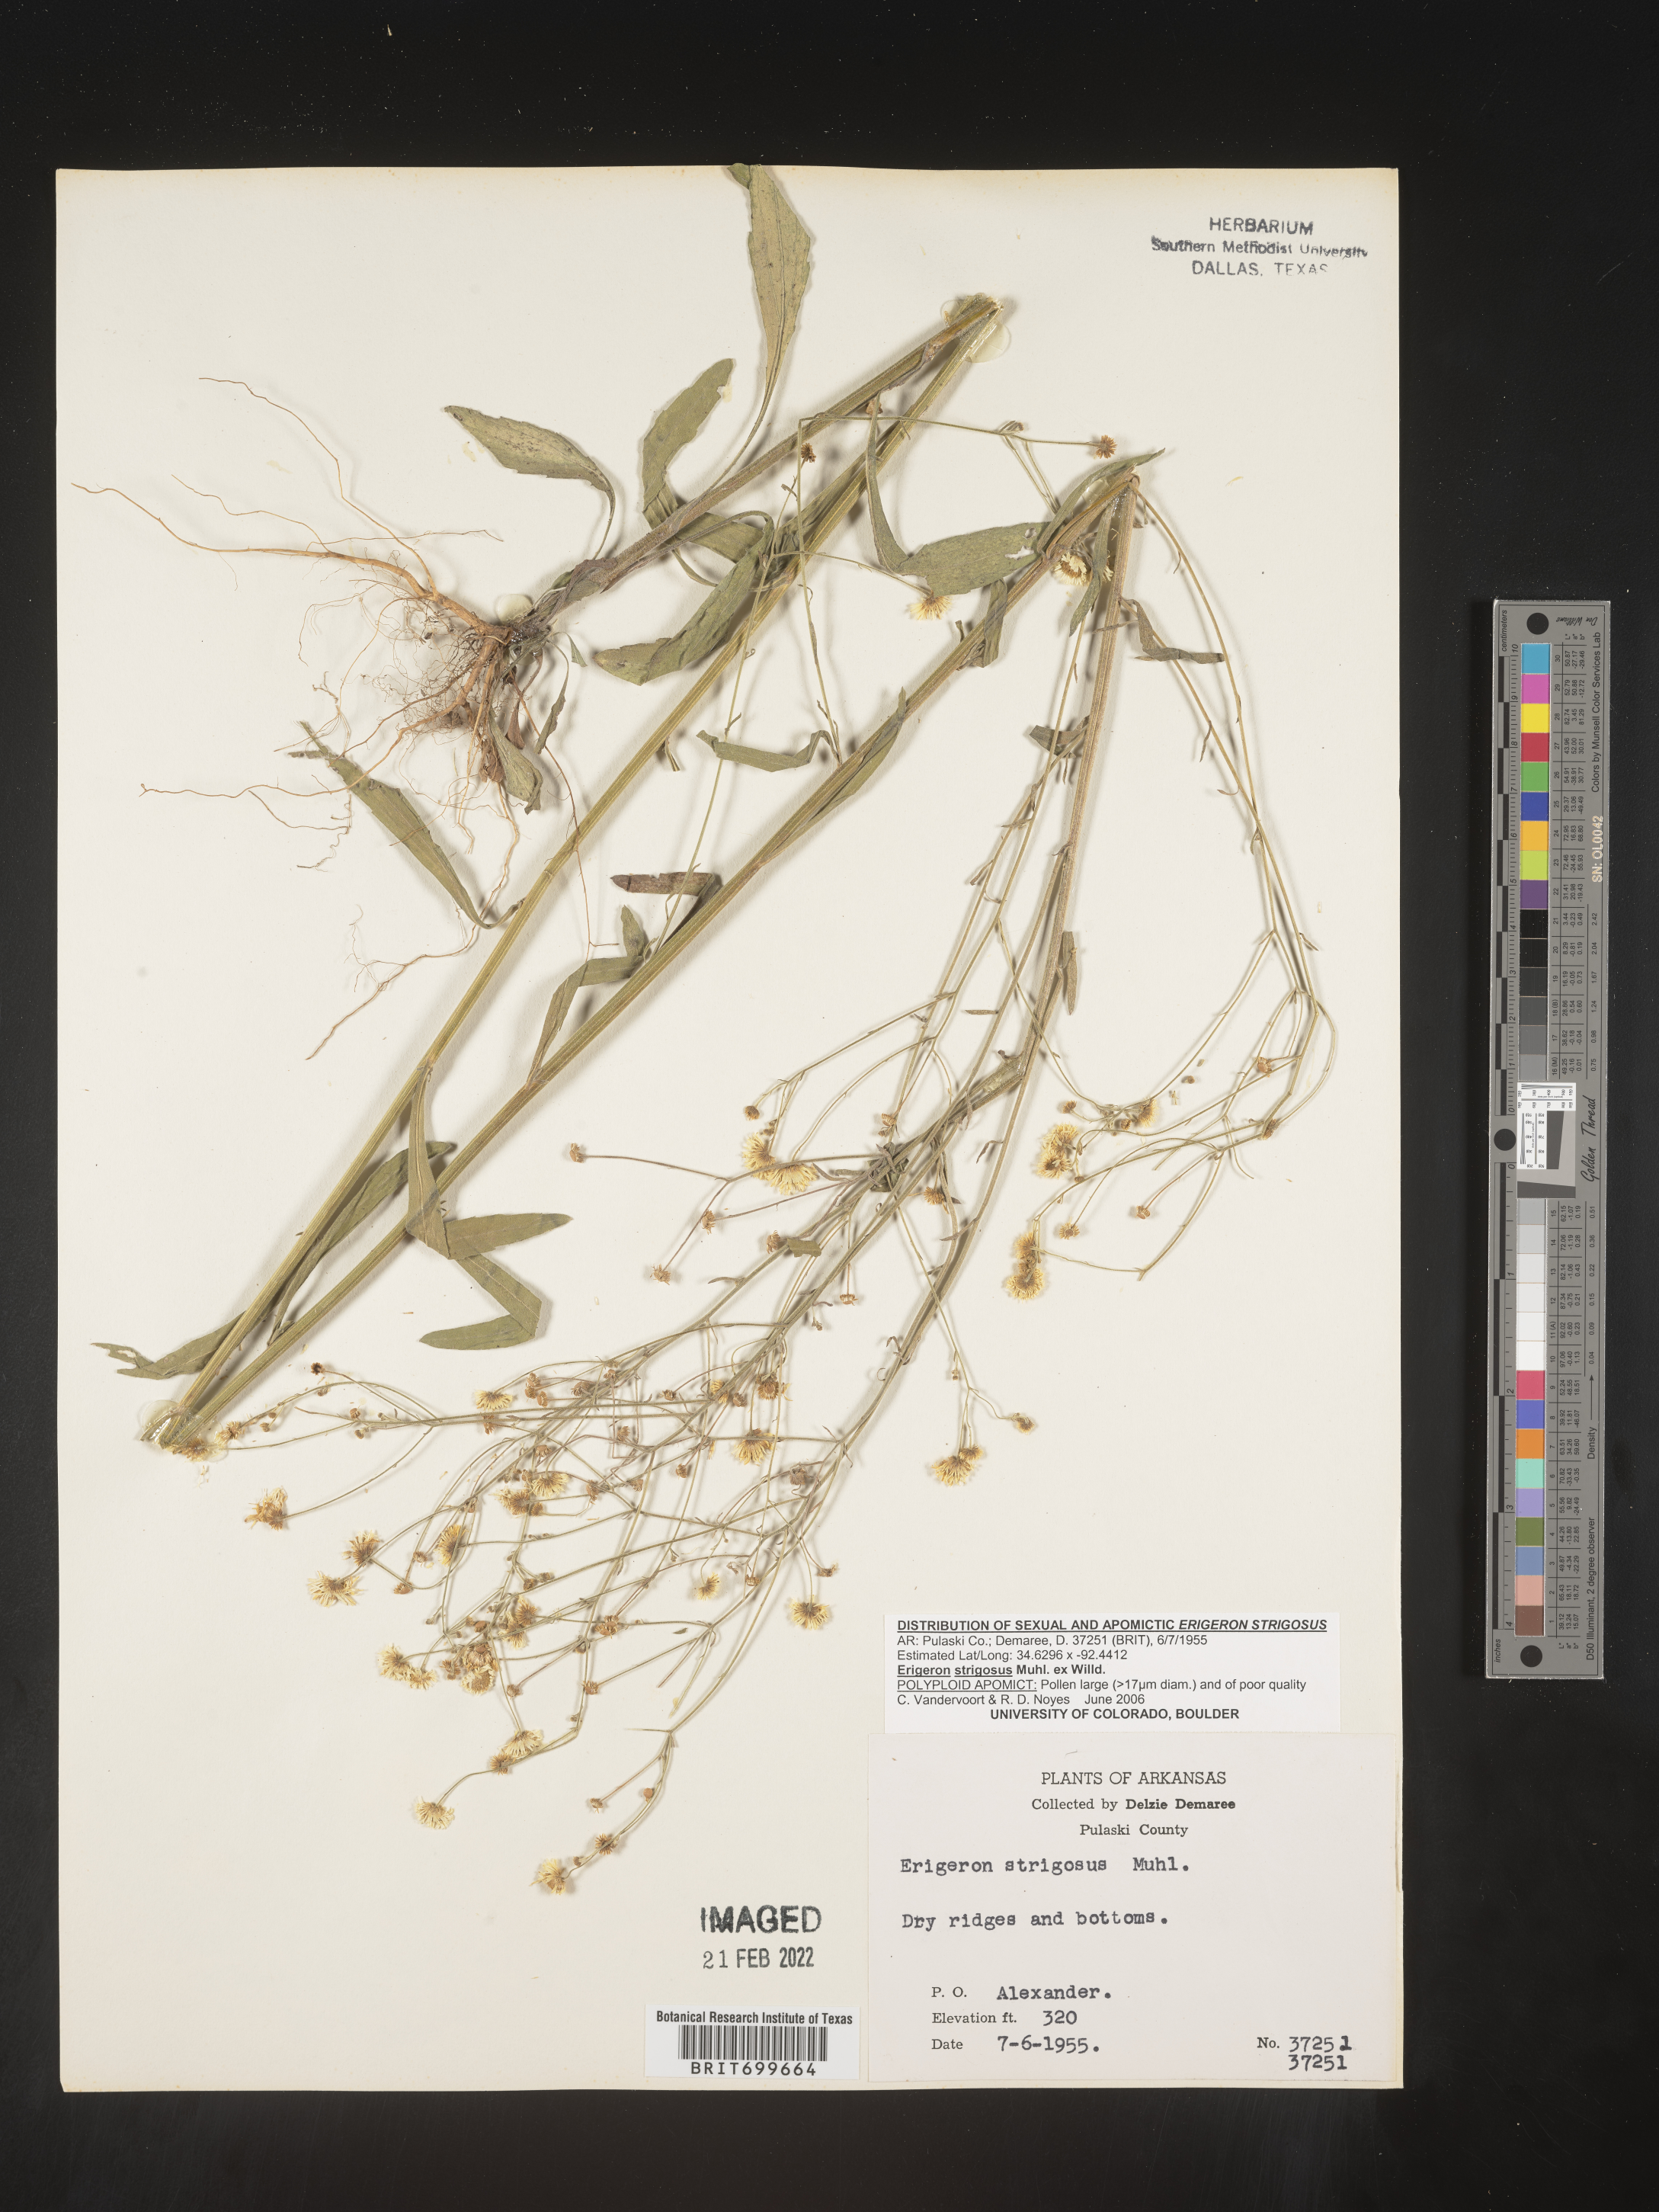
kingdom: Plantae
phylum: Tracheophyta
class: Magnoliopsida
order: Asterales
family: Asteraceae
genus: Erigeron
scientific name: Erigeron strigosus
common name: Common eastern fleabane
